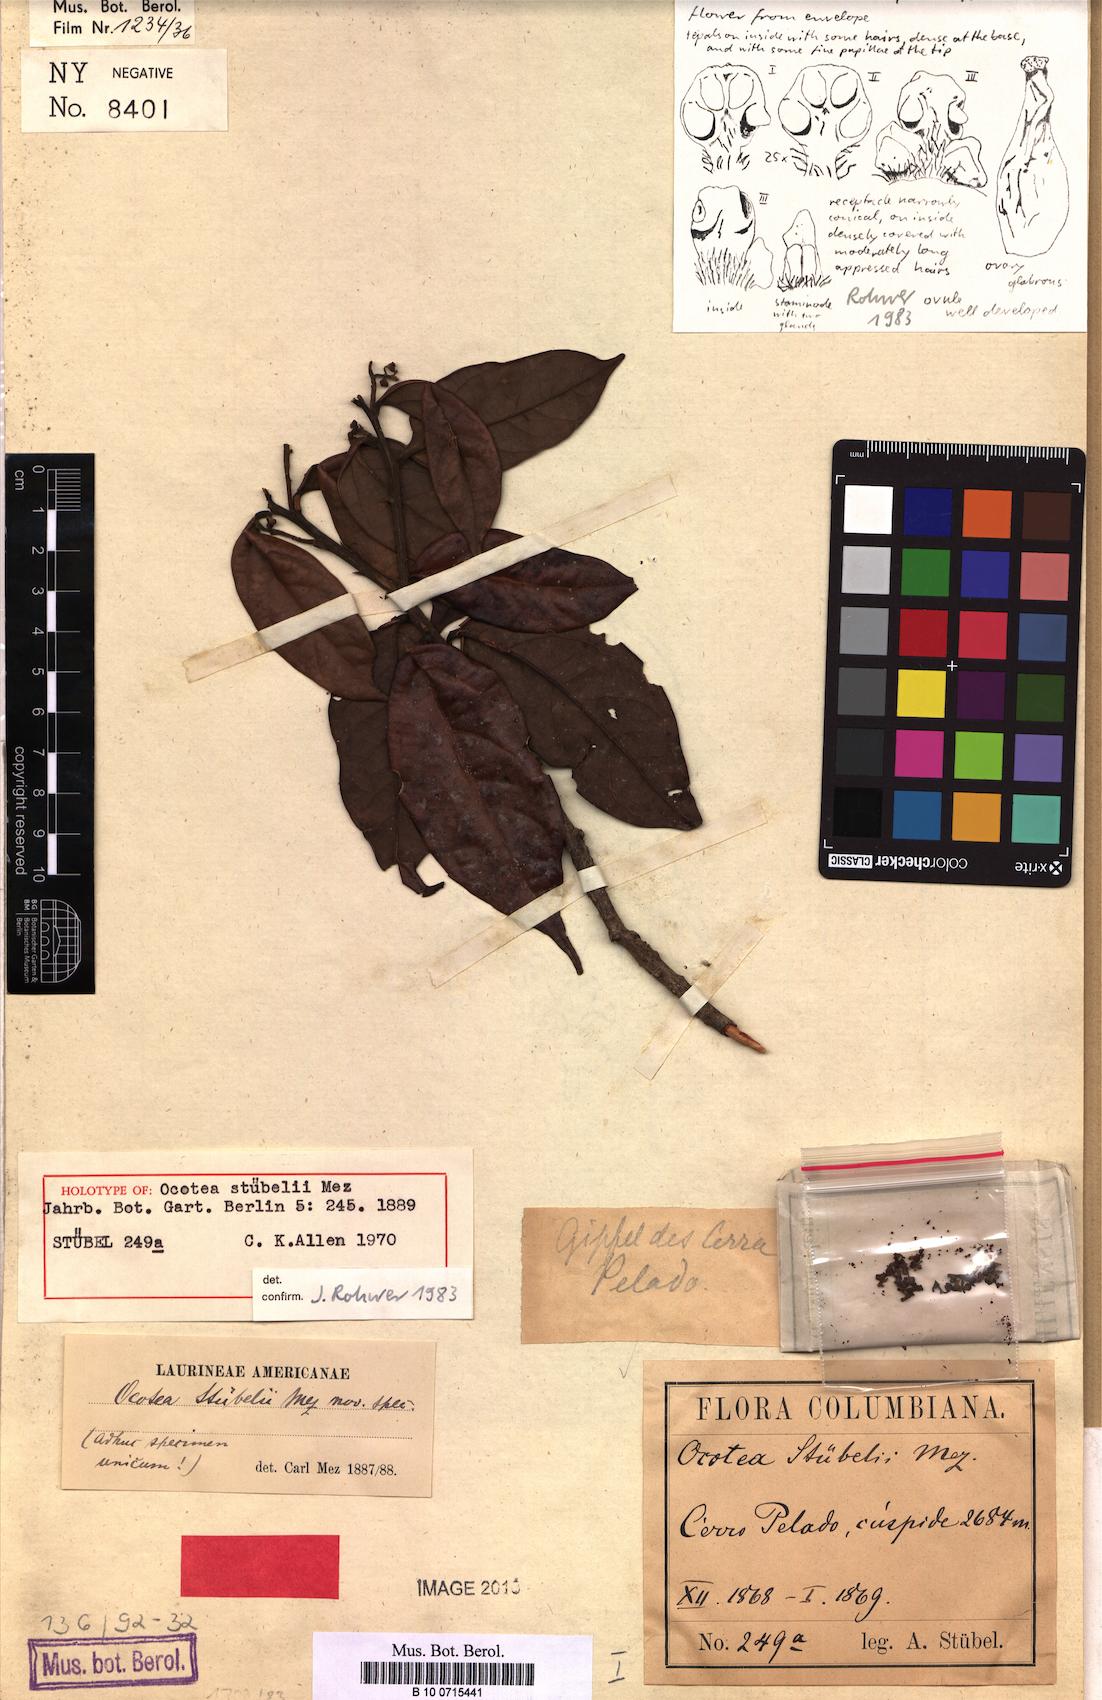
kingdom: Plantae
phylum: Tracheophyta
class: Magnoliopsida
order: Laurales
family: Lauraceae
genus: Ocotea
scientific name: Ocotea stuebelii
